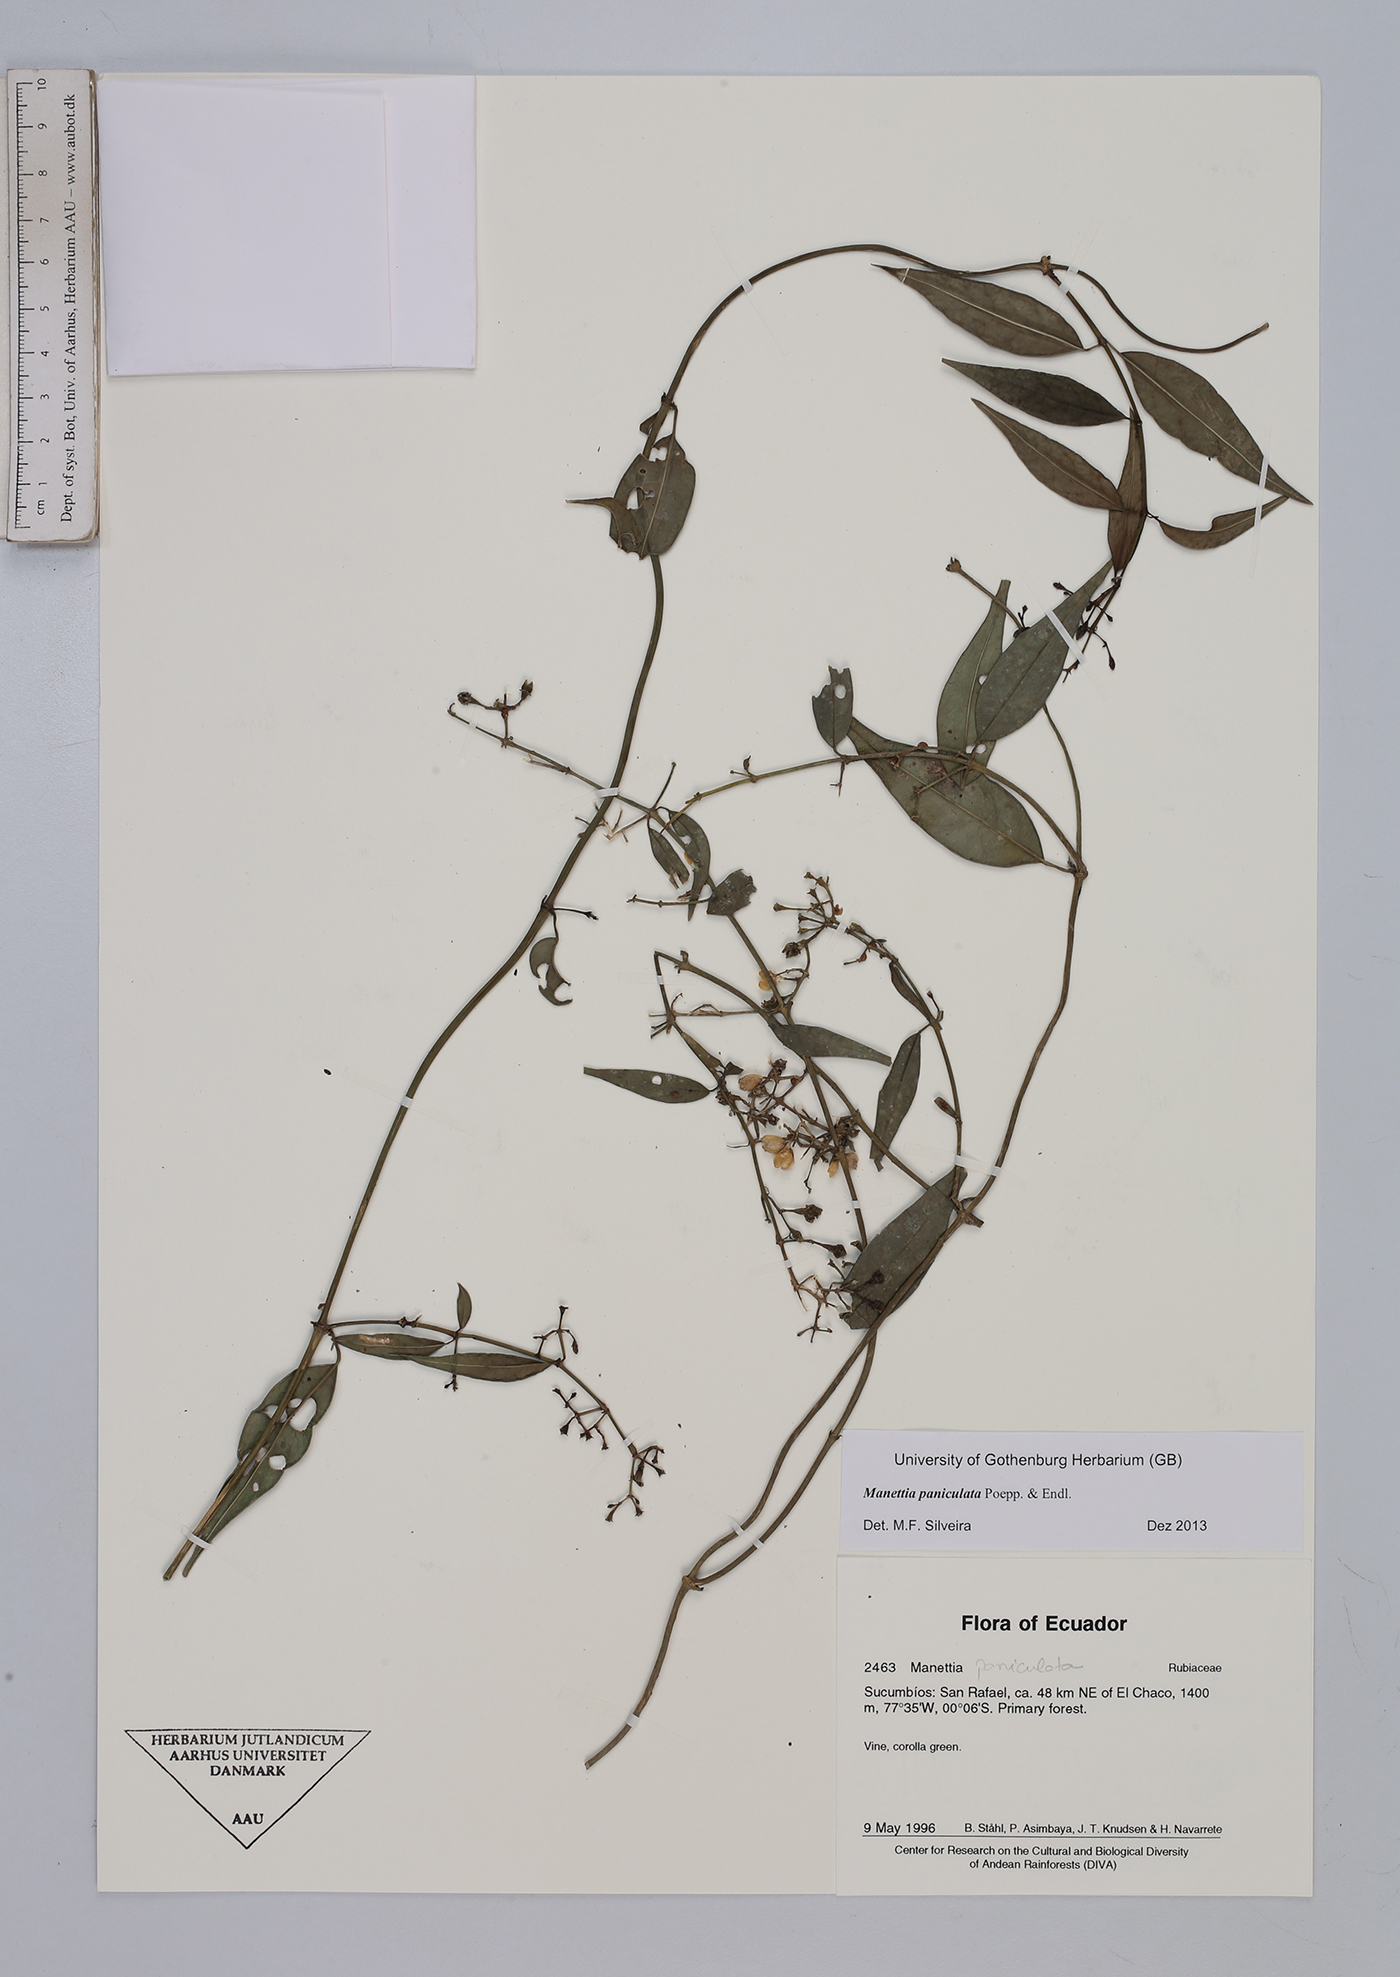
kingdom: Plantae
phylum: Tracheophyta
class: Magnoliopsida
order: Gentianales
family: Rubiaceae
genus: Manettia
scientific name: Manettia paniculata
